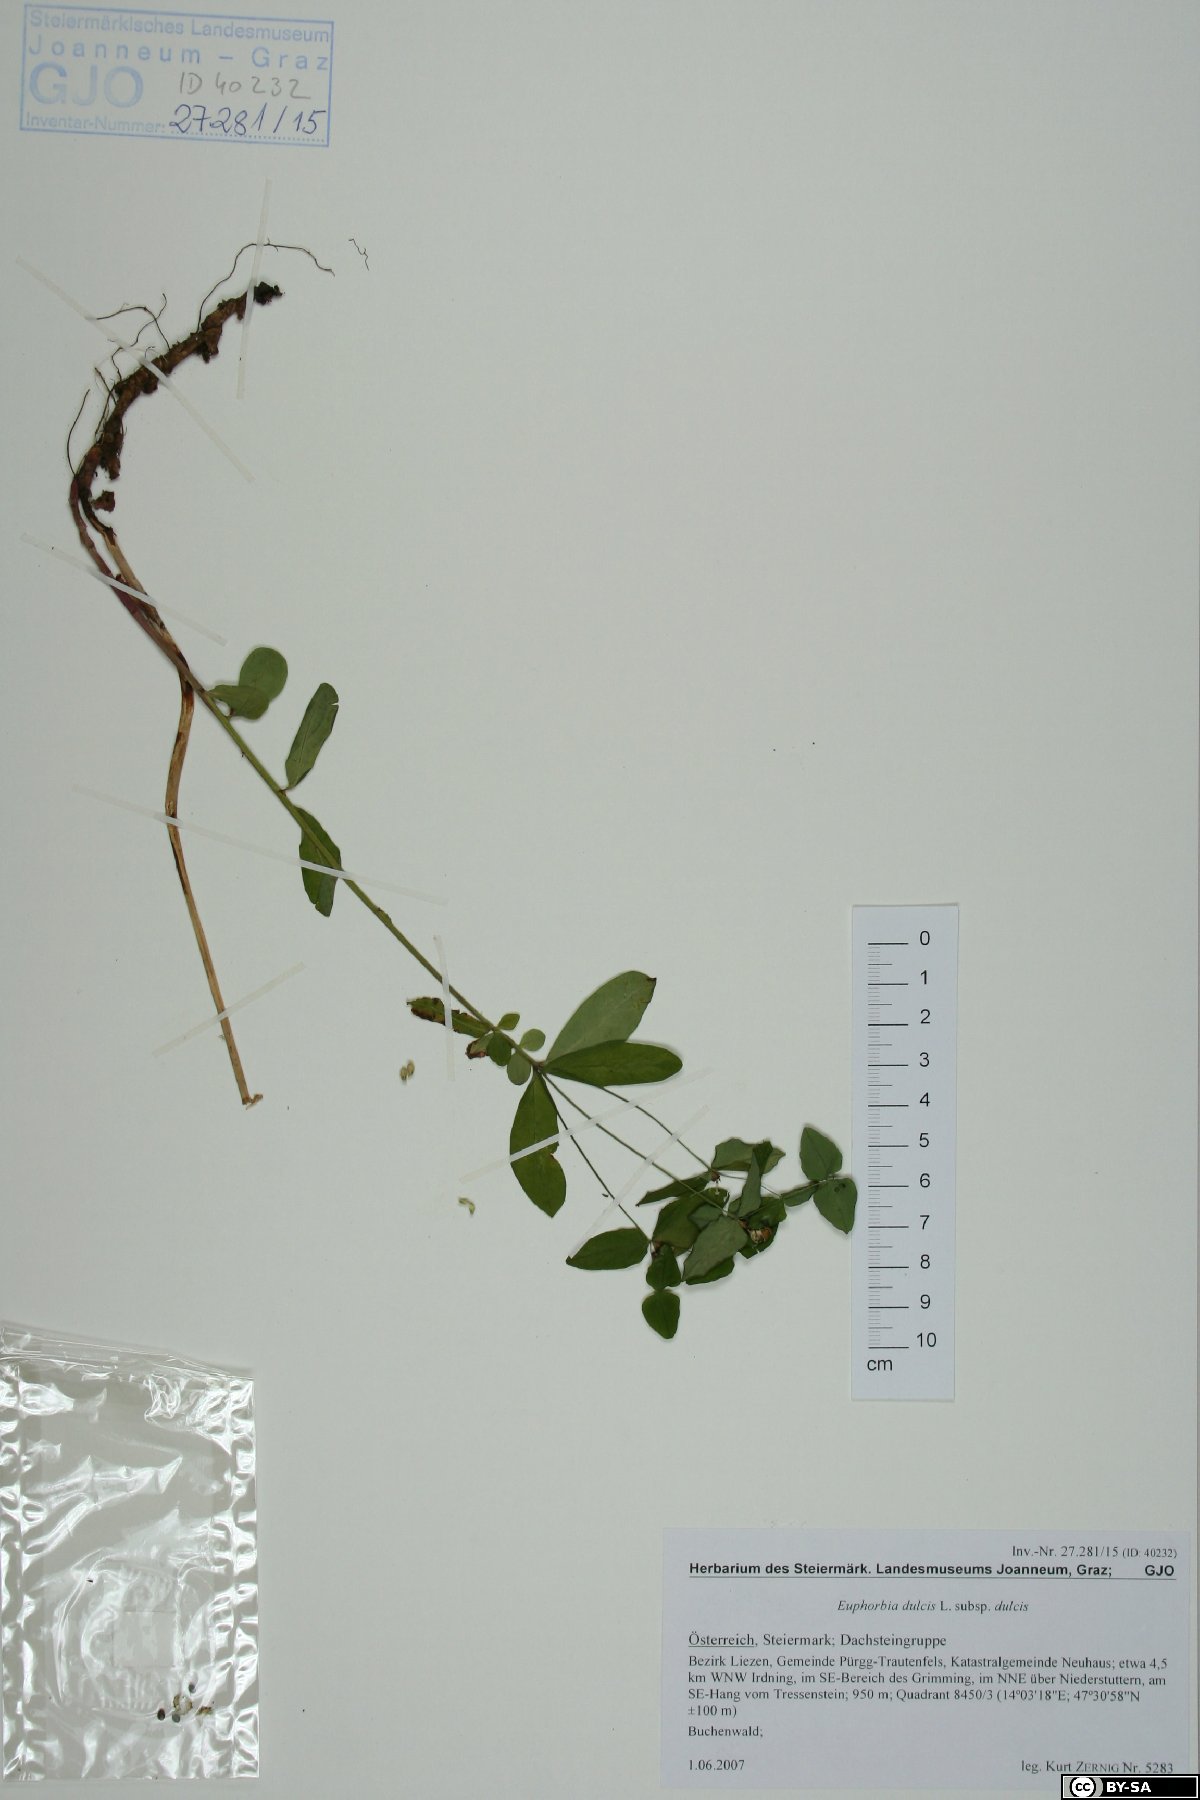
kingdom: Plantae
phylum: Tracheophyta
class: Magnoliopsida
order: Malpighiales
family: Euphorbiaceae
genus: Euphorbia
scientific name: Euphorbia dulcis
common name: Sweet spurge
